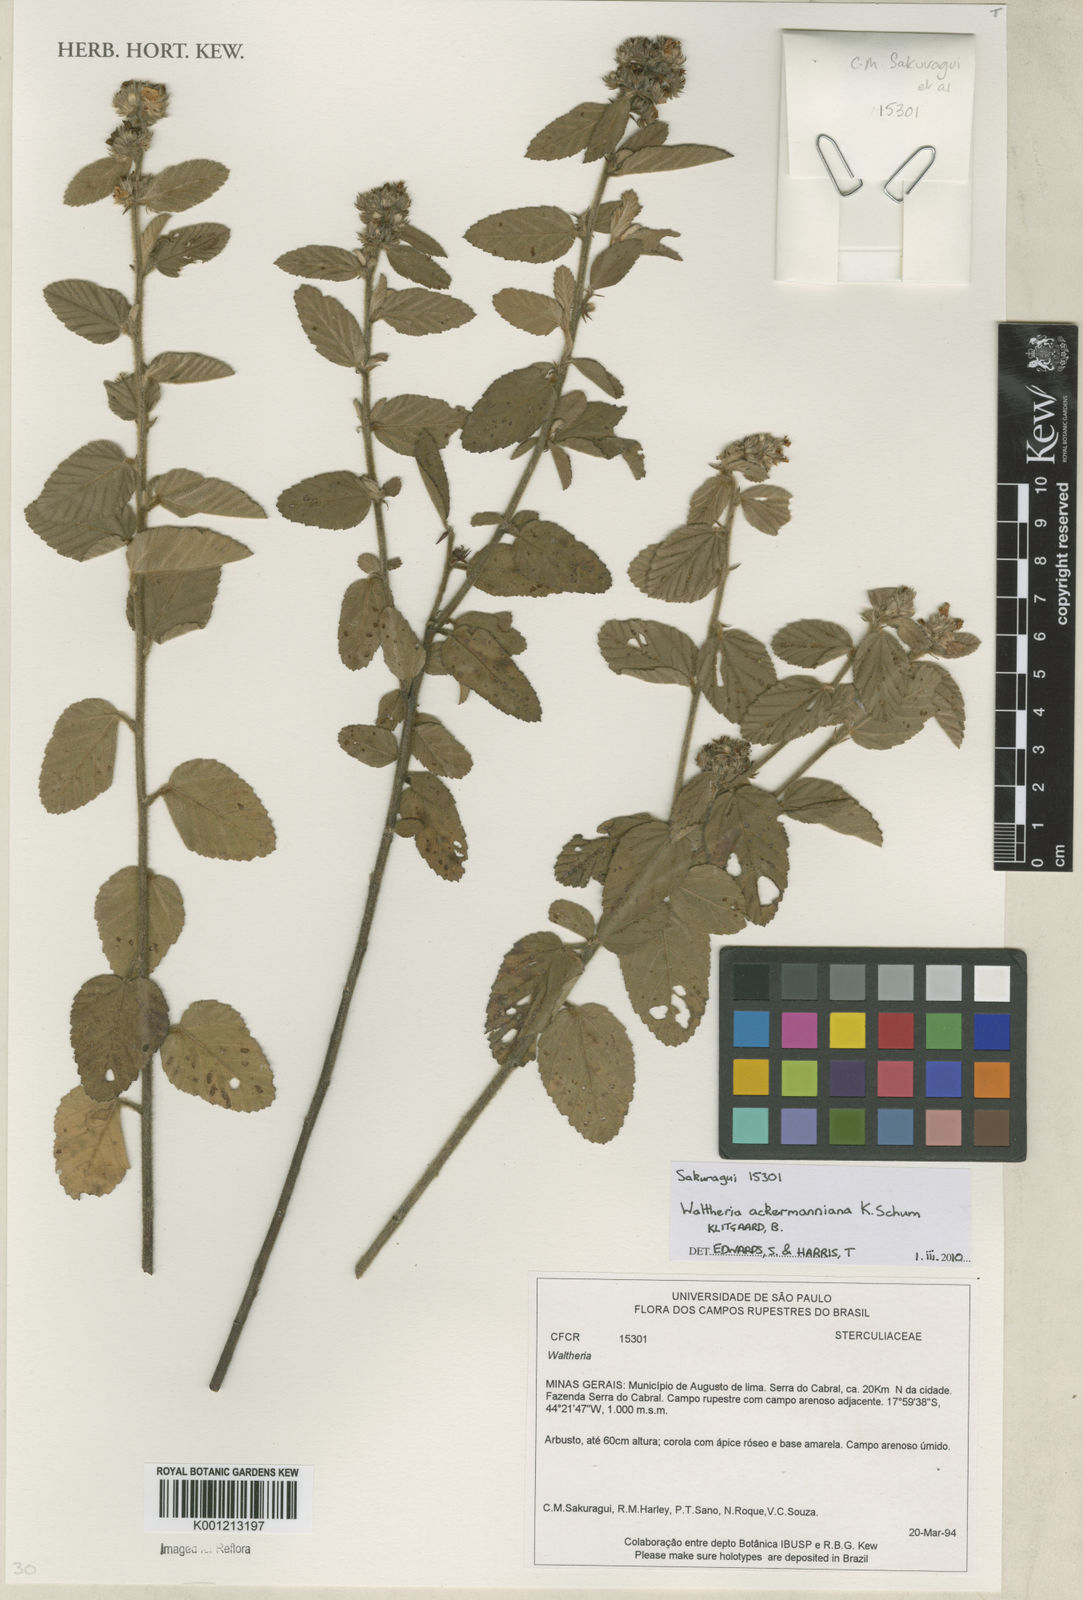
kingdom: Plantae
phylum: Tracheophyta
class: Magnoliopsida
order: Malvales
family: Malvaceae
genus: Waltheria
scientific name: Waltheria ackermanniana
